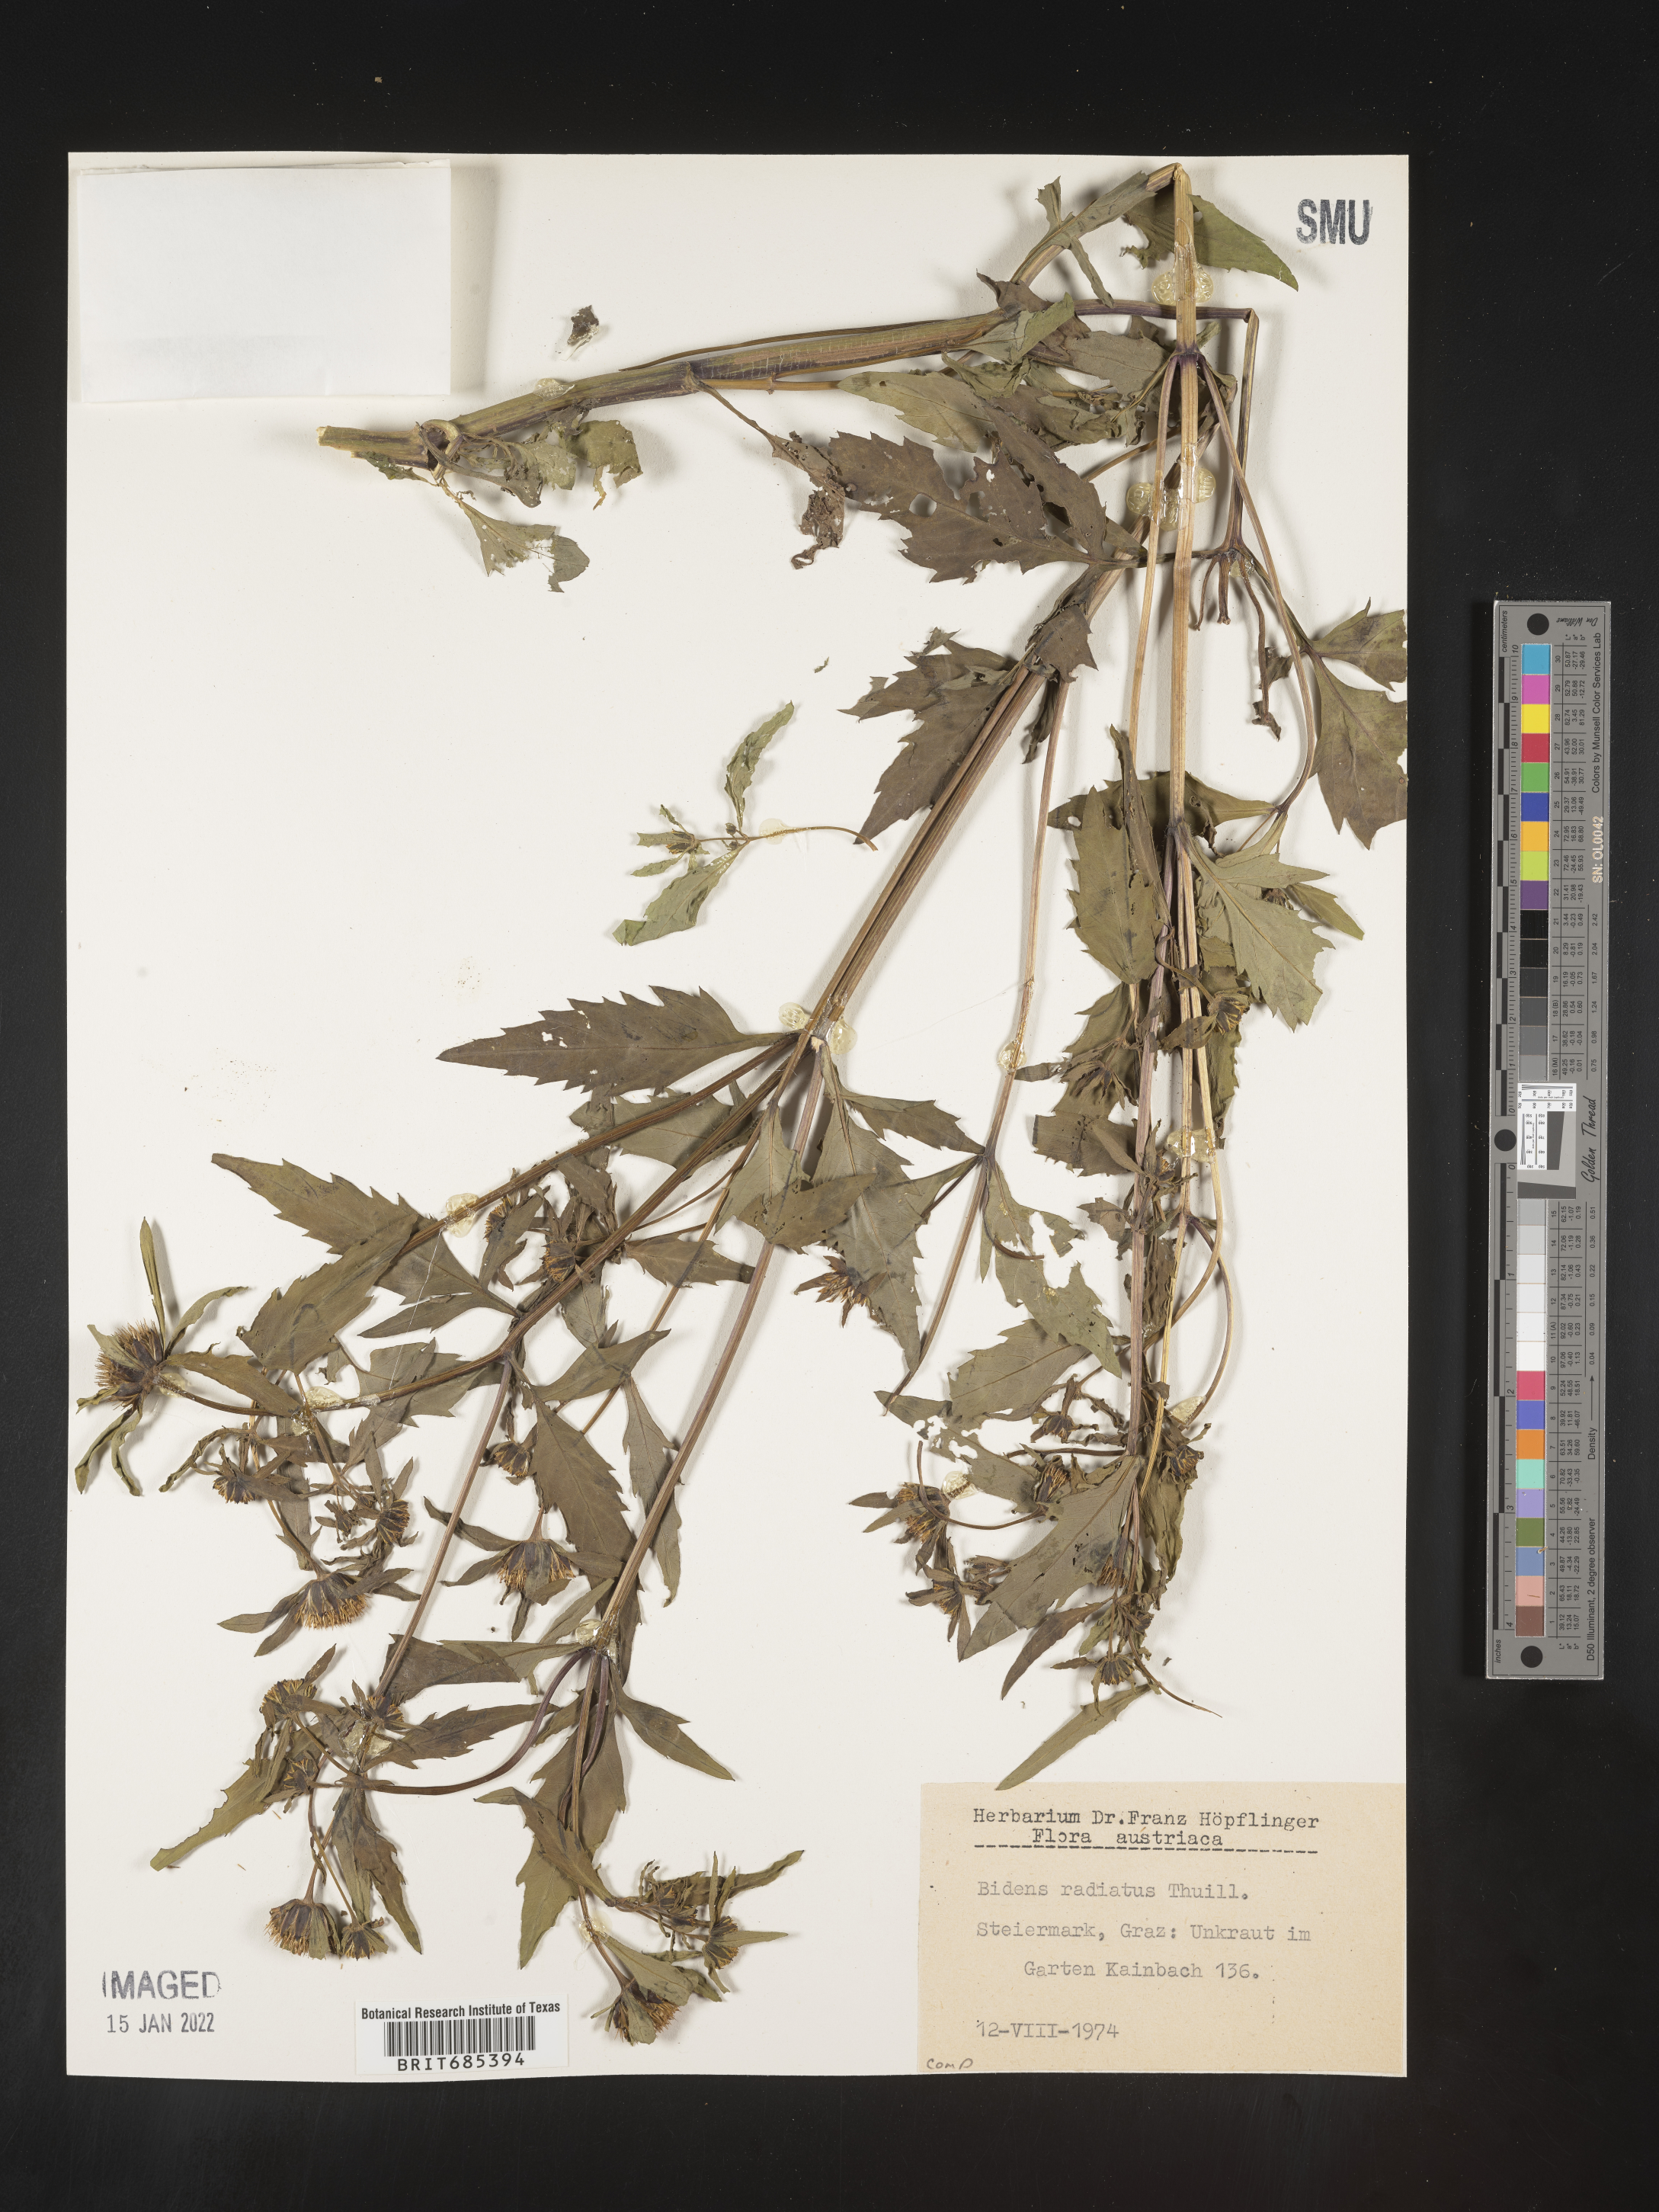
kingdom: Plantae
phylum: Tracheophyta
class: Magnoliopsida
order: Asterales
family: Asteraceae
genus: Bidens
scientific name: Bidens
